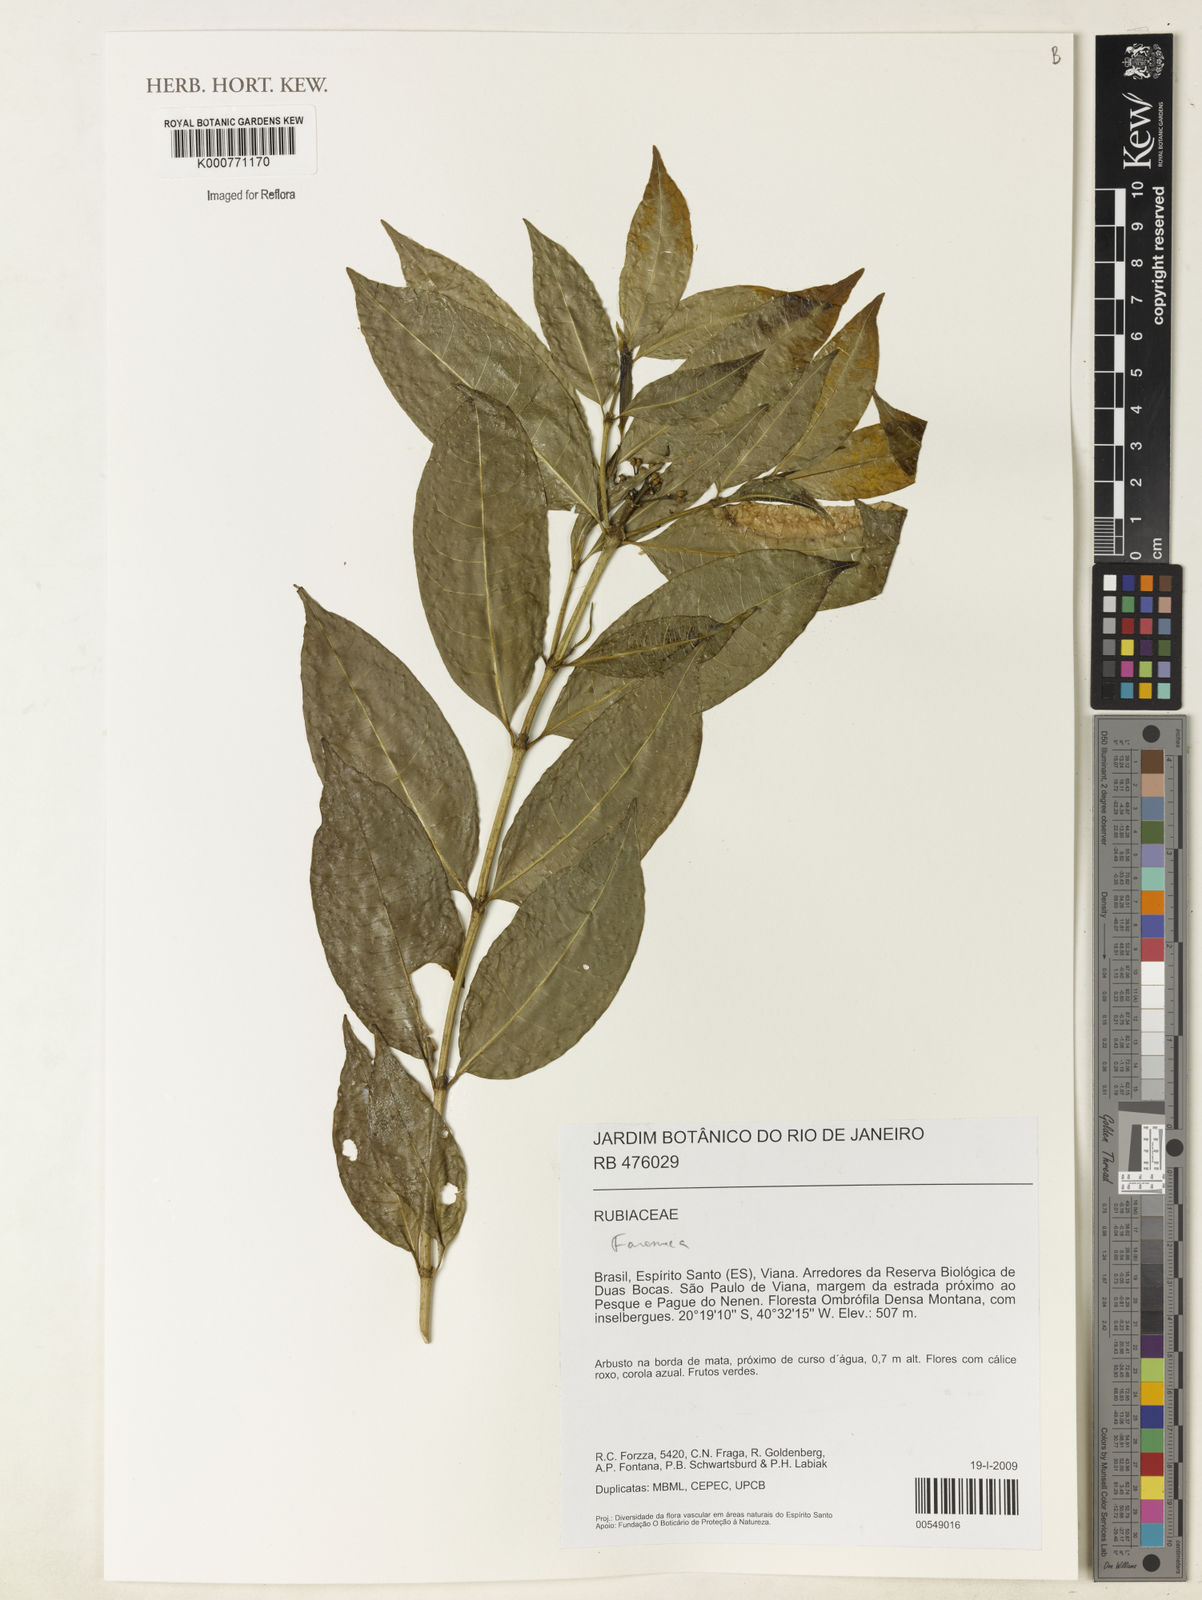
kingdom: Plantae
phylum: Tracheophyta
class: Magnoliopsida
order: Gentianales
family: Rubiaceae
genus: Faramea
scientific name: Faramea
